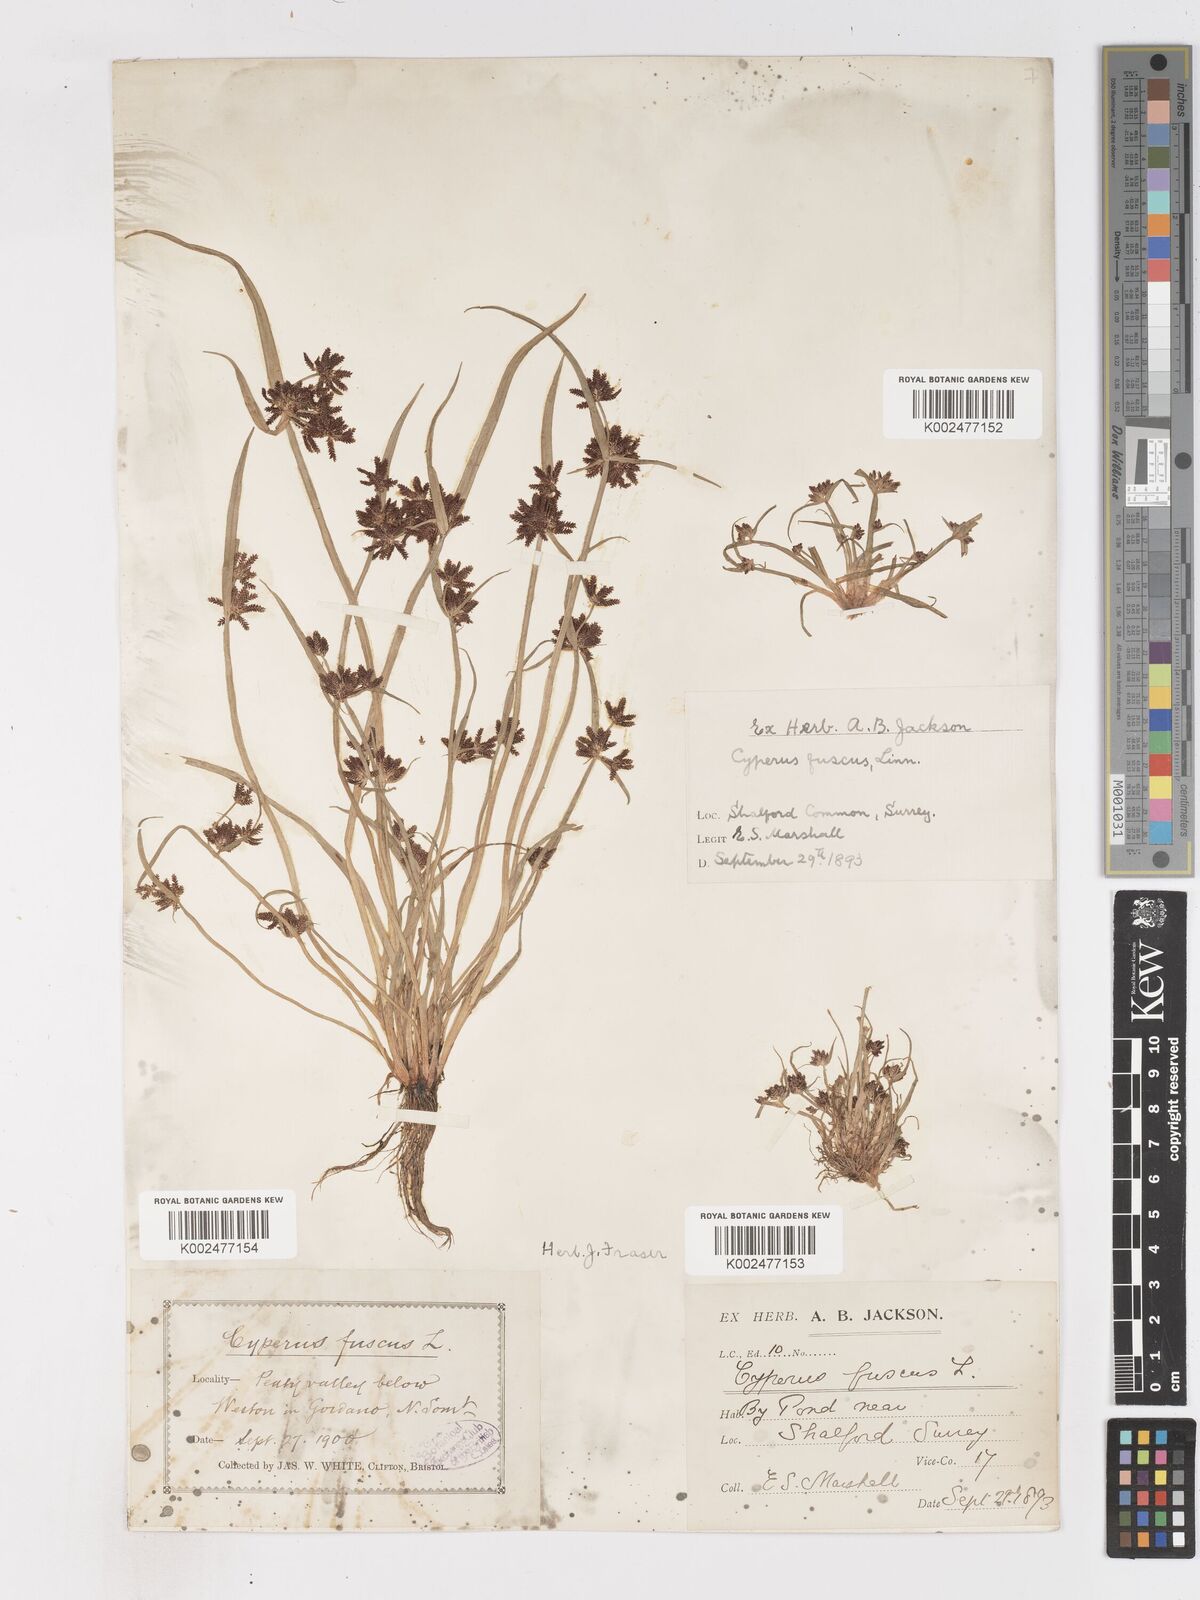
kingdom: Plantae
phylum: Tracheophyta
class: Liliopsida
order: Poales
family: Cyperaceae
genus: Cyperus
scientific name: Cyperus fuscus
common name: Brown galingale
